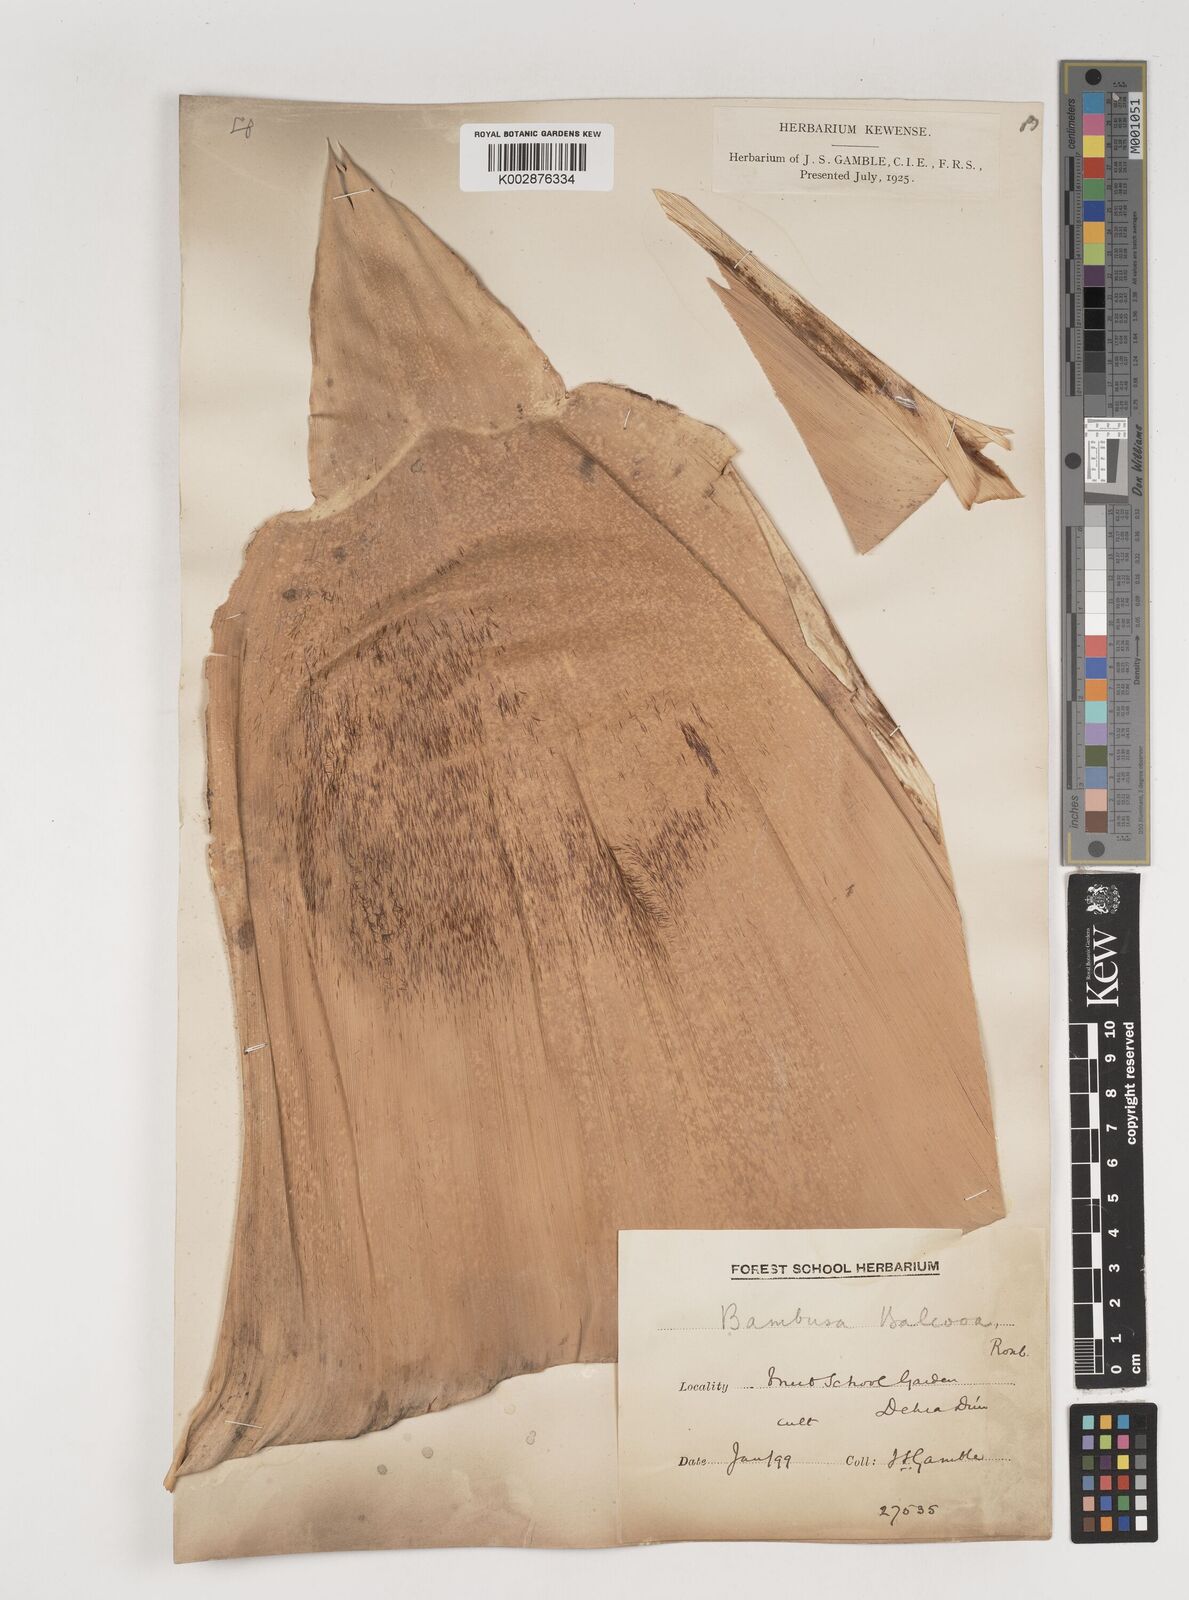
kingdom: Plantae
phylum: Tracheophyta
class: Liliopsida
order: Poales
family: Poaceae
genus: Bambusa
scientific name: Bambusa balcooa
